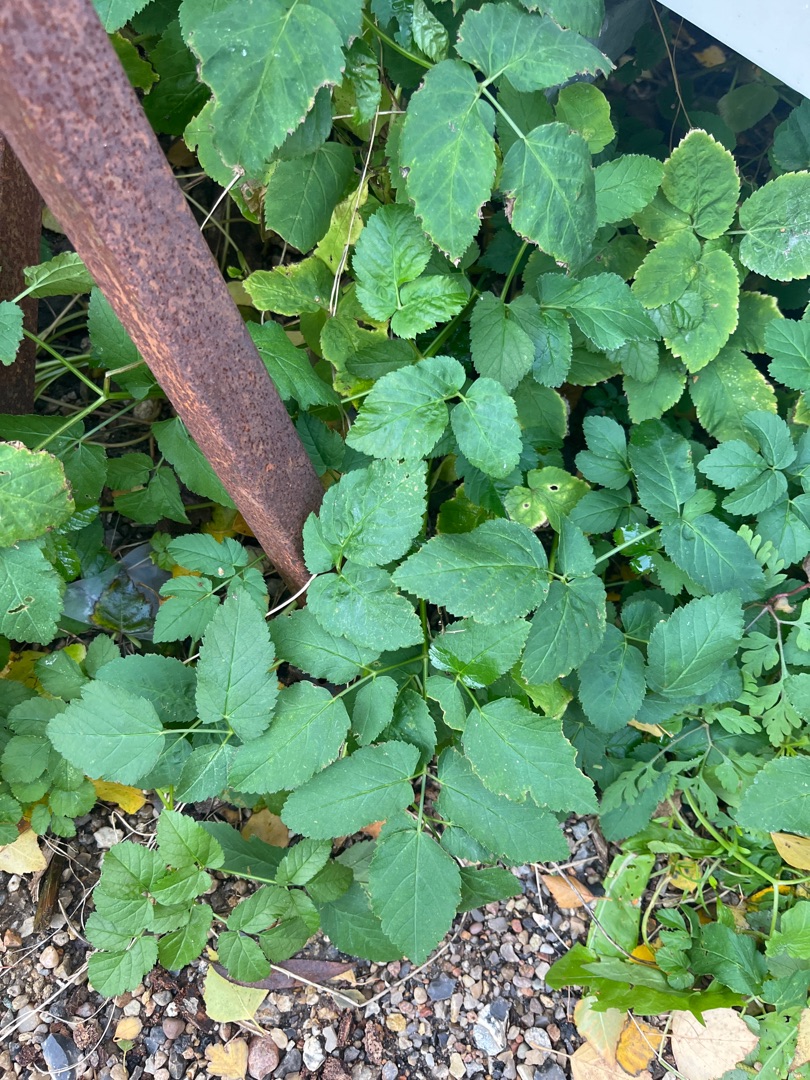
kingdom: Plantae
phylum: Tracheophyta
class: Magnoliopsida
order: Apiales
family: Apiaceae
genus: Aegopodium
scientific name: Aegopodium podagraria
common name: Skvalderkål
